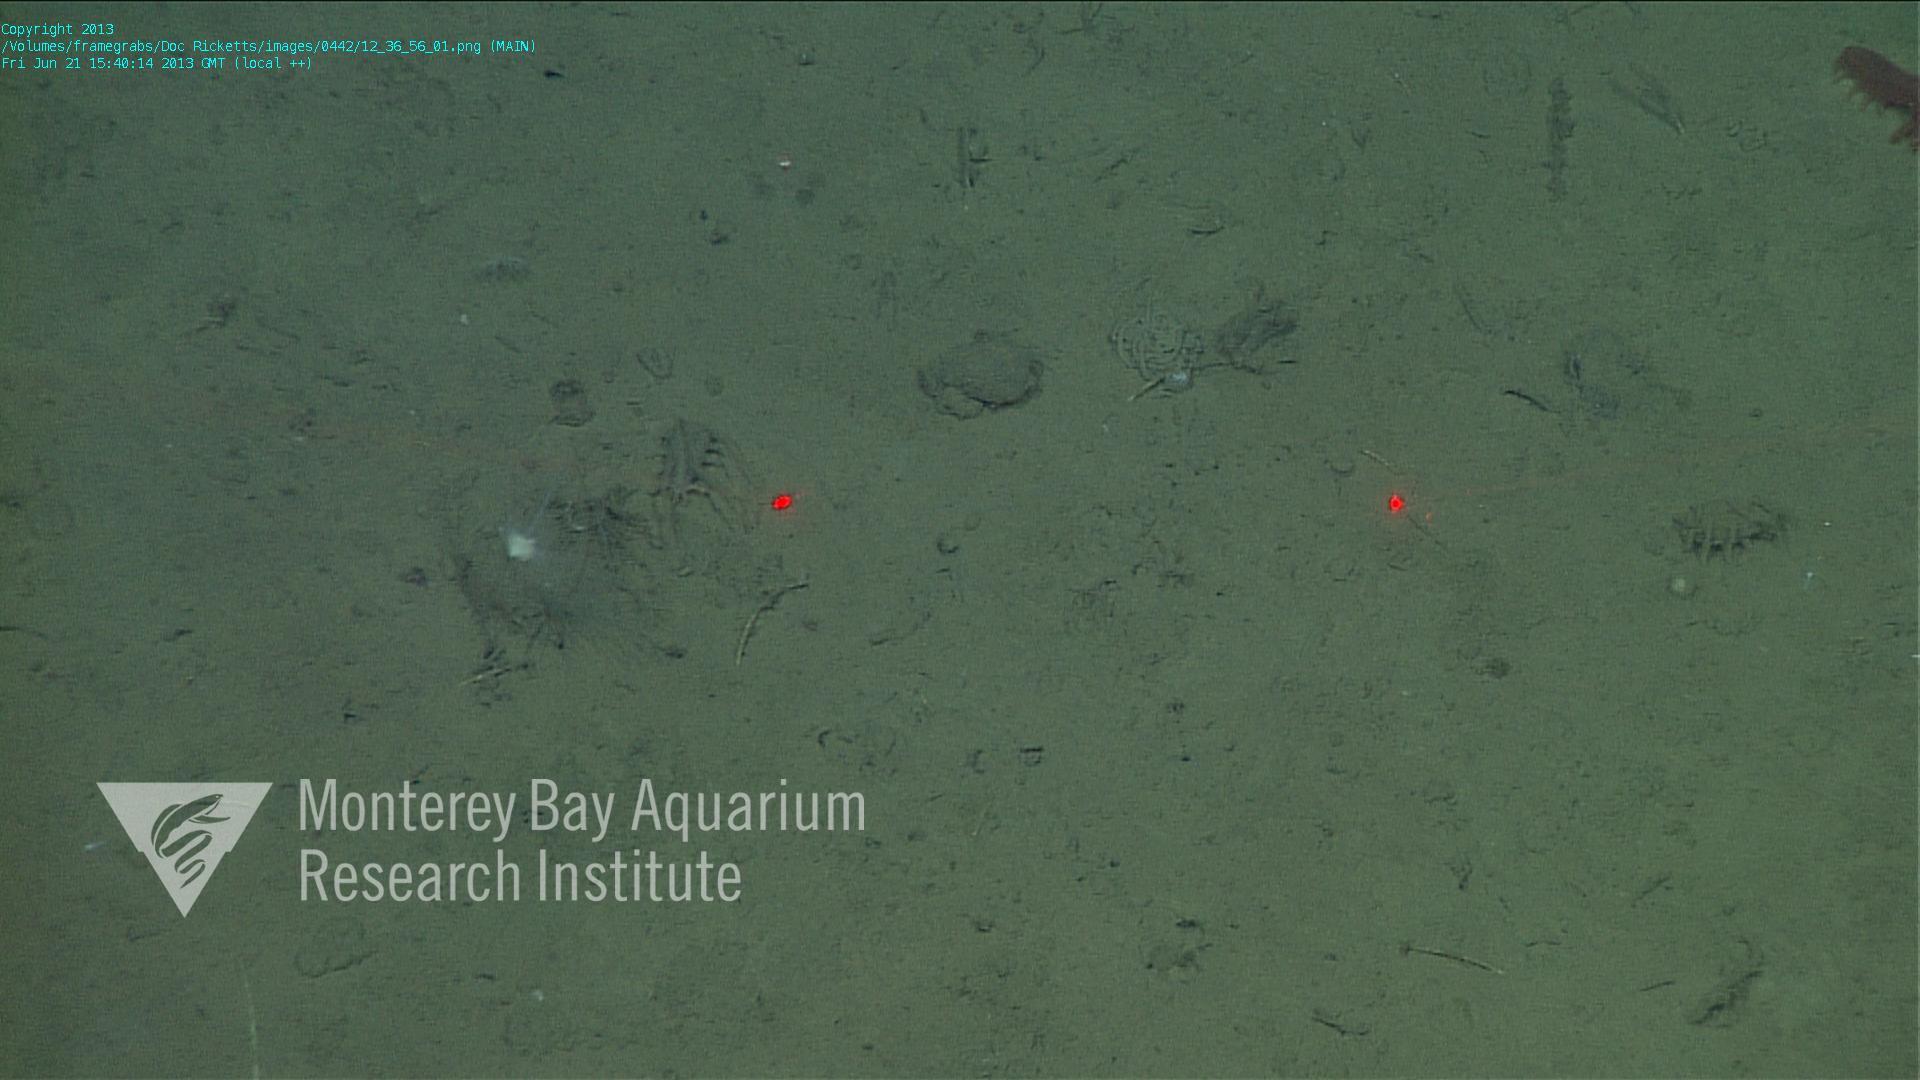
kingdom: Animalia
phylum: Porifera
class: Demospongiae
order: Poecilosclerida
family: Cladorhizidae
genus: Cladorhiza
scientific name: Cladorhiza
